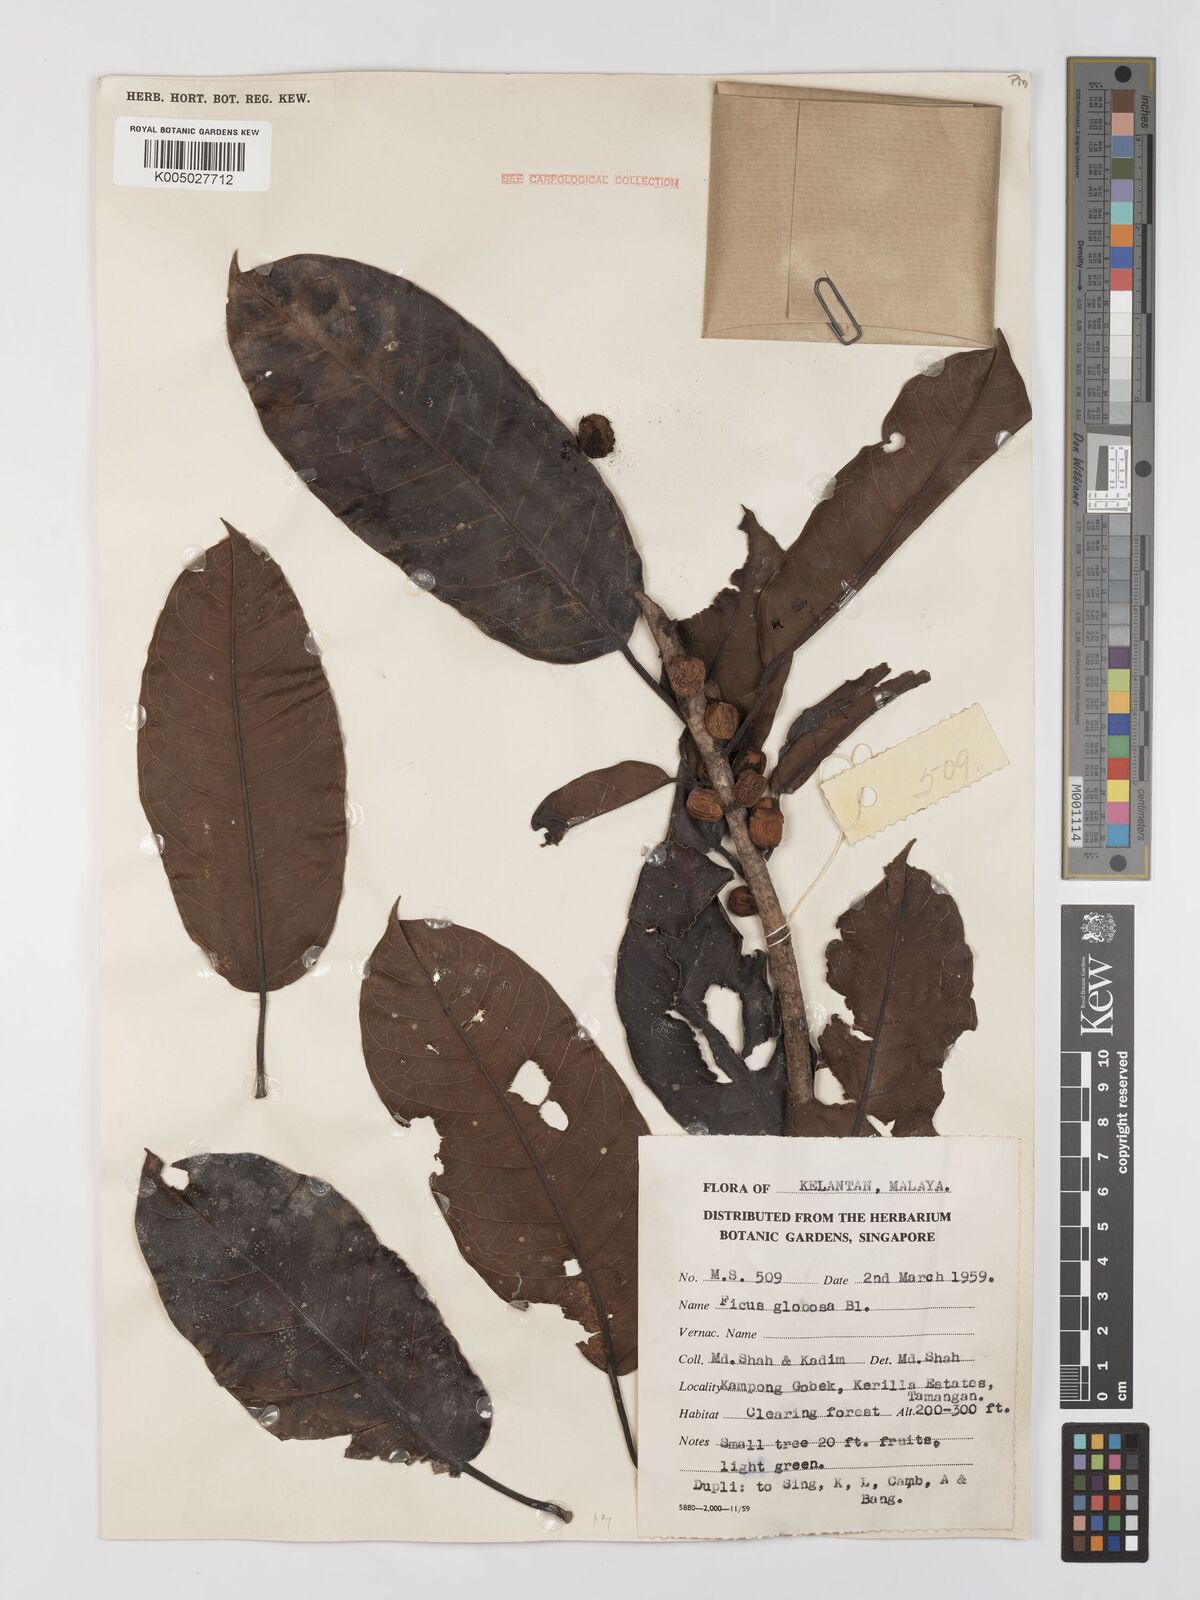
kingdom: Plantae
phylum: Tracheophyta
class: Magnoliopsida
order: Rosales
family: Moraceae
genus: Ficus
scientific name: Ficus
